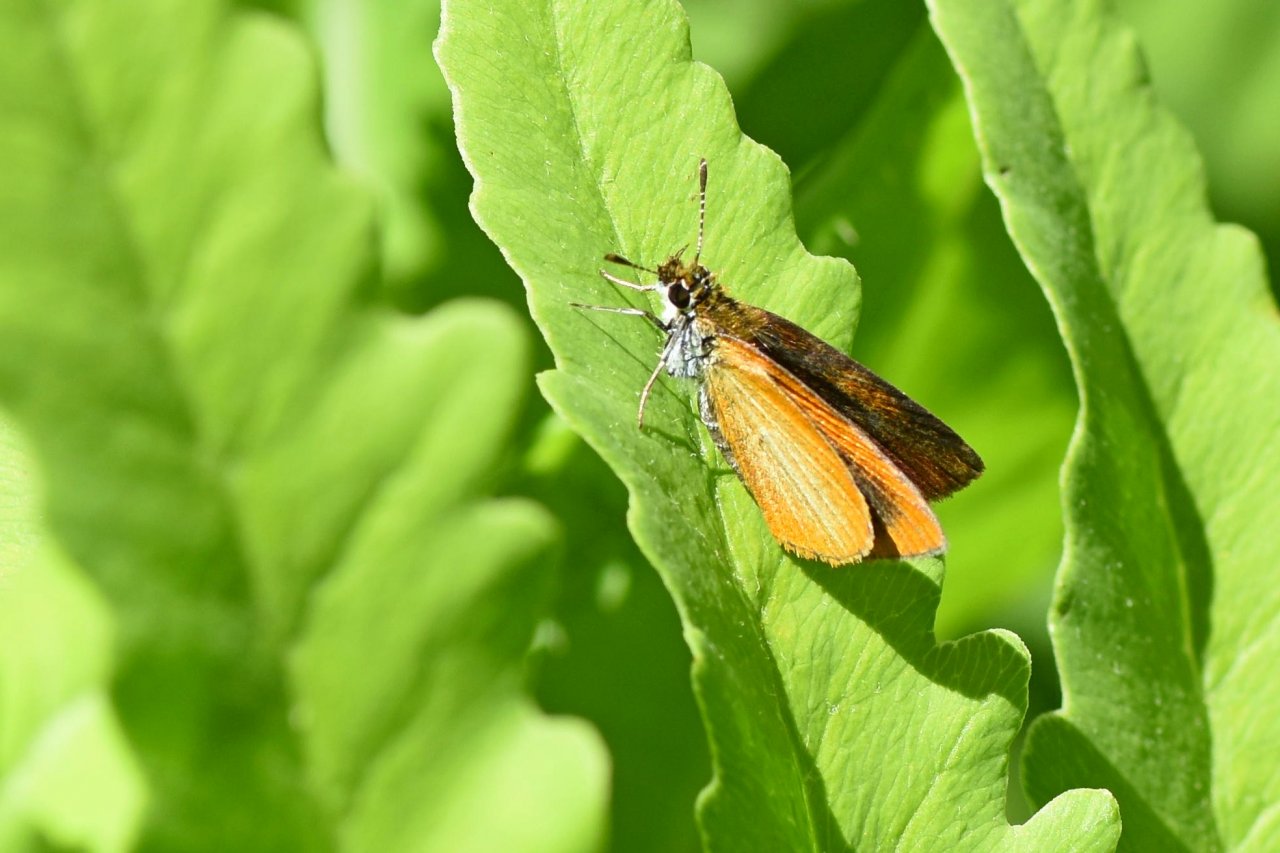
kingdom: Animalia
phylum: Arthropoda
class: Insecta
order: Lepidoptera
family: Hesperiidae
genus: Ancyloxypha
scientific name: Ancyloxypha numitor
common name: Least Skipper
